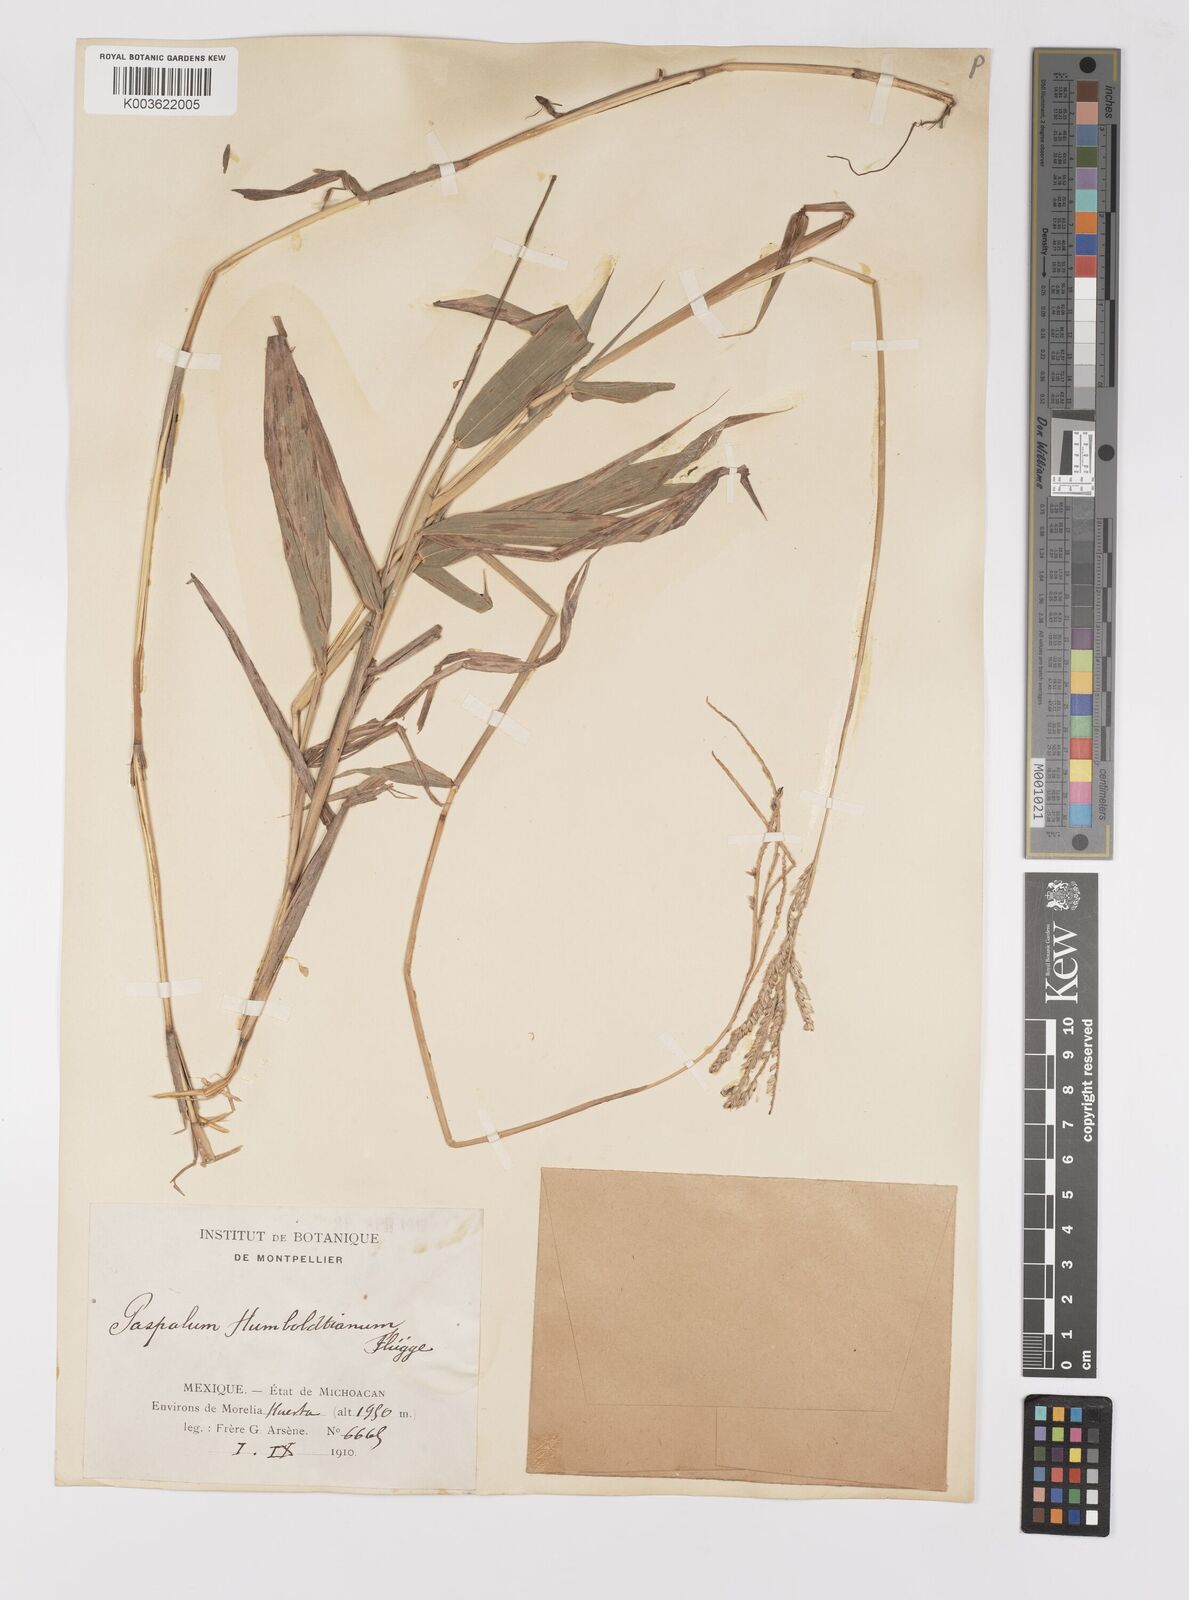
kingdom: Plantae
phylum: Tracheophyta
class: Liliopsida
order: Poales
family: Poaceae
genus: Paspalum
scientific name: Paspalum humboldtianum
